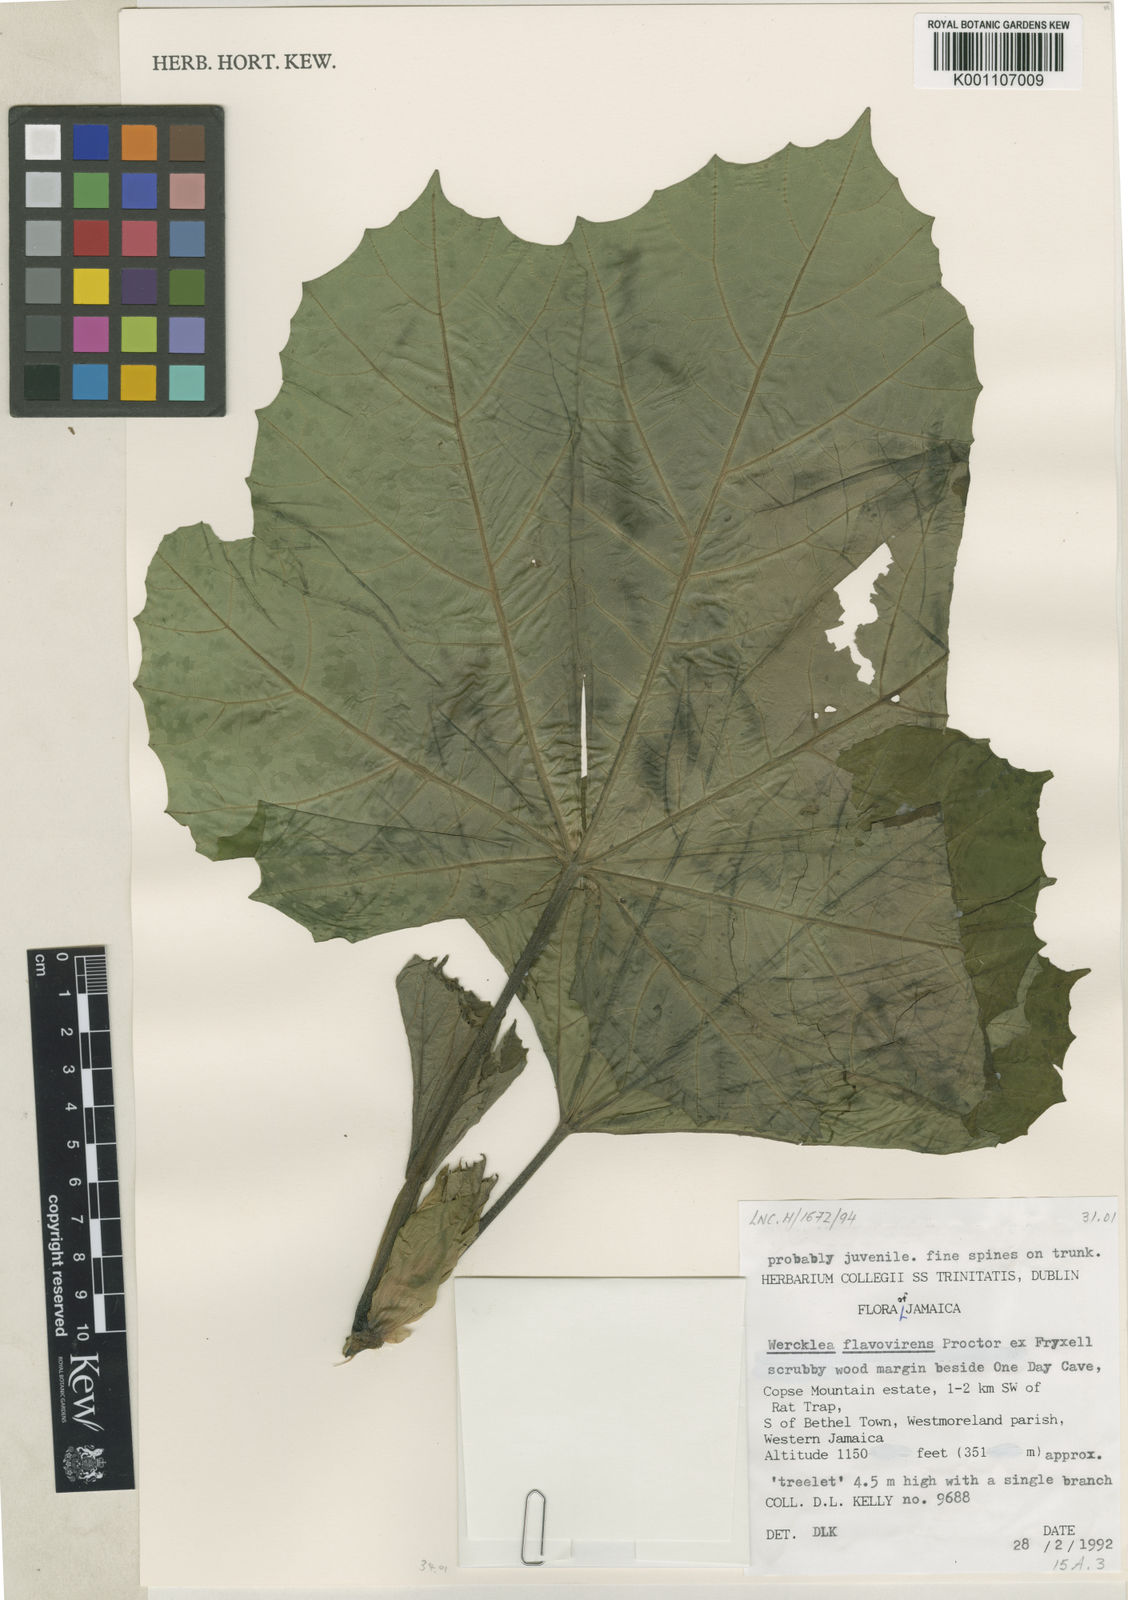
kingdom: Plantae
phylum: Tracheophyta
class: Magnoliopsida
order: Malvales
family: Malvaceae
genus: Wercklea
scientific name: Wercklea flavovirens
